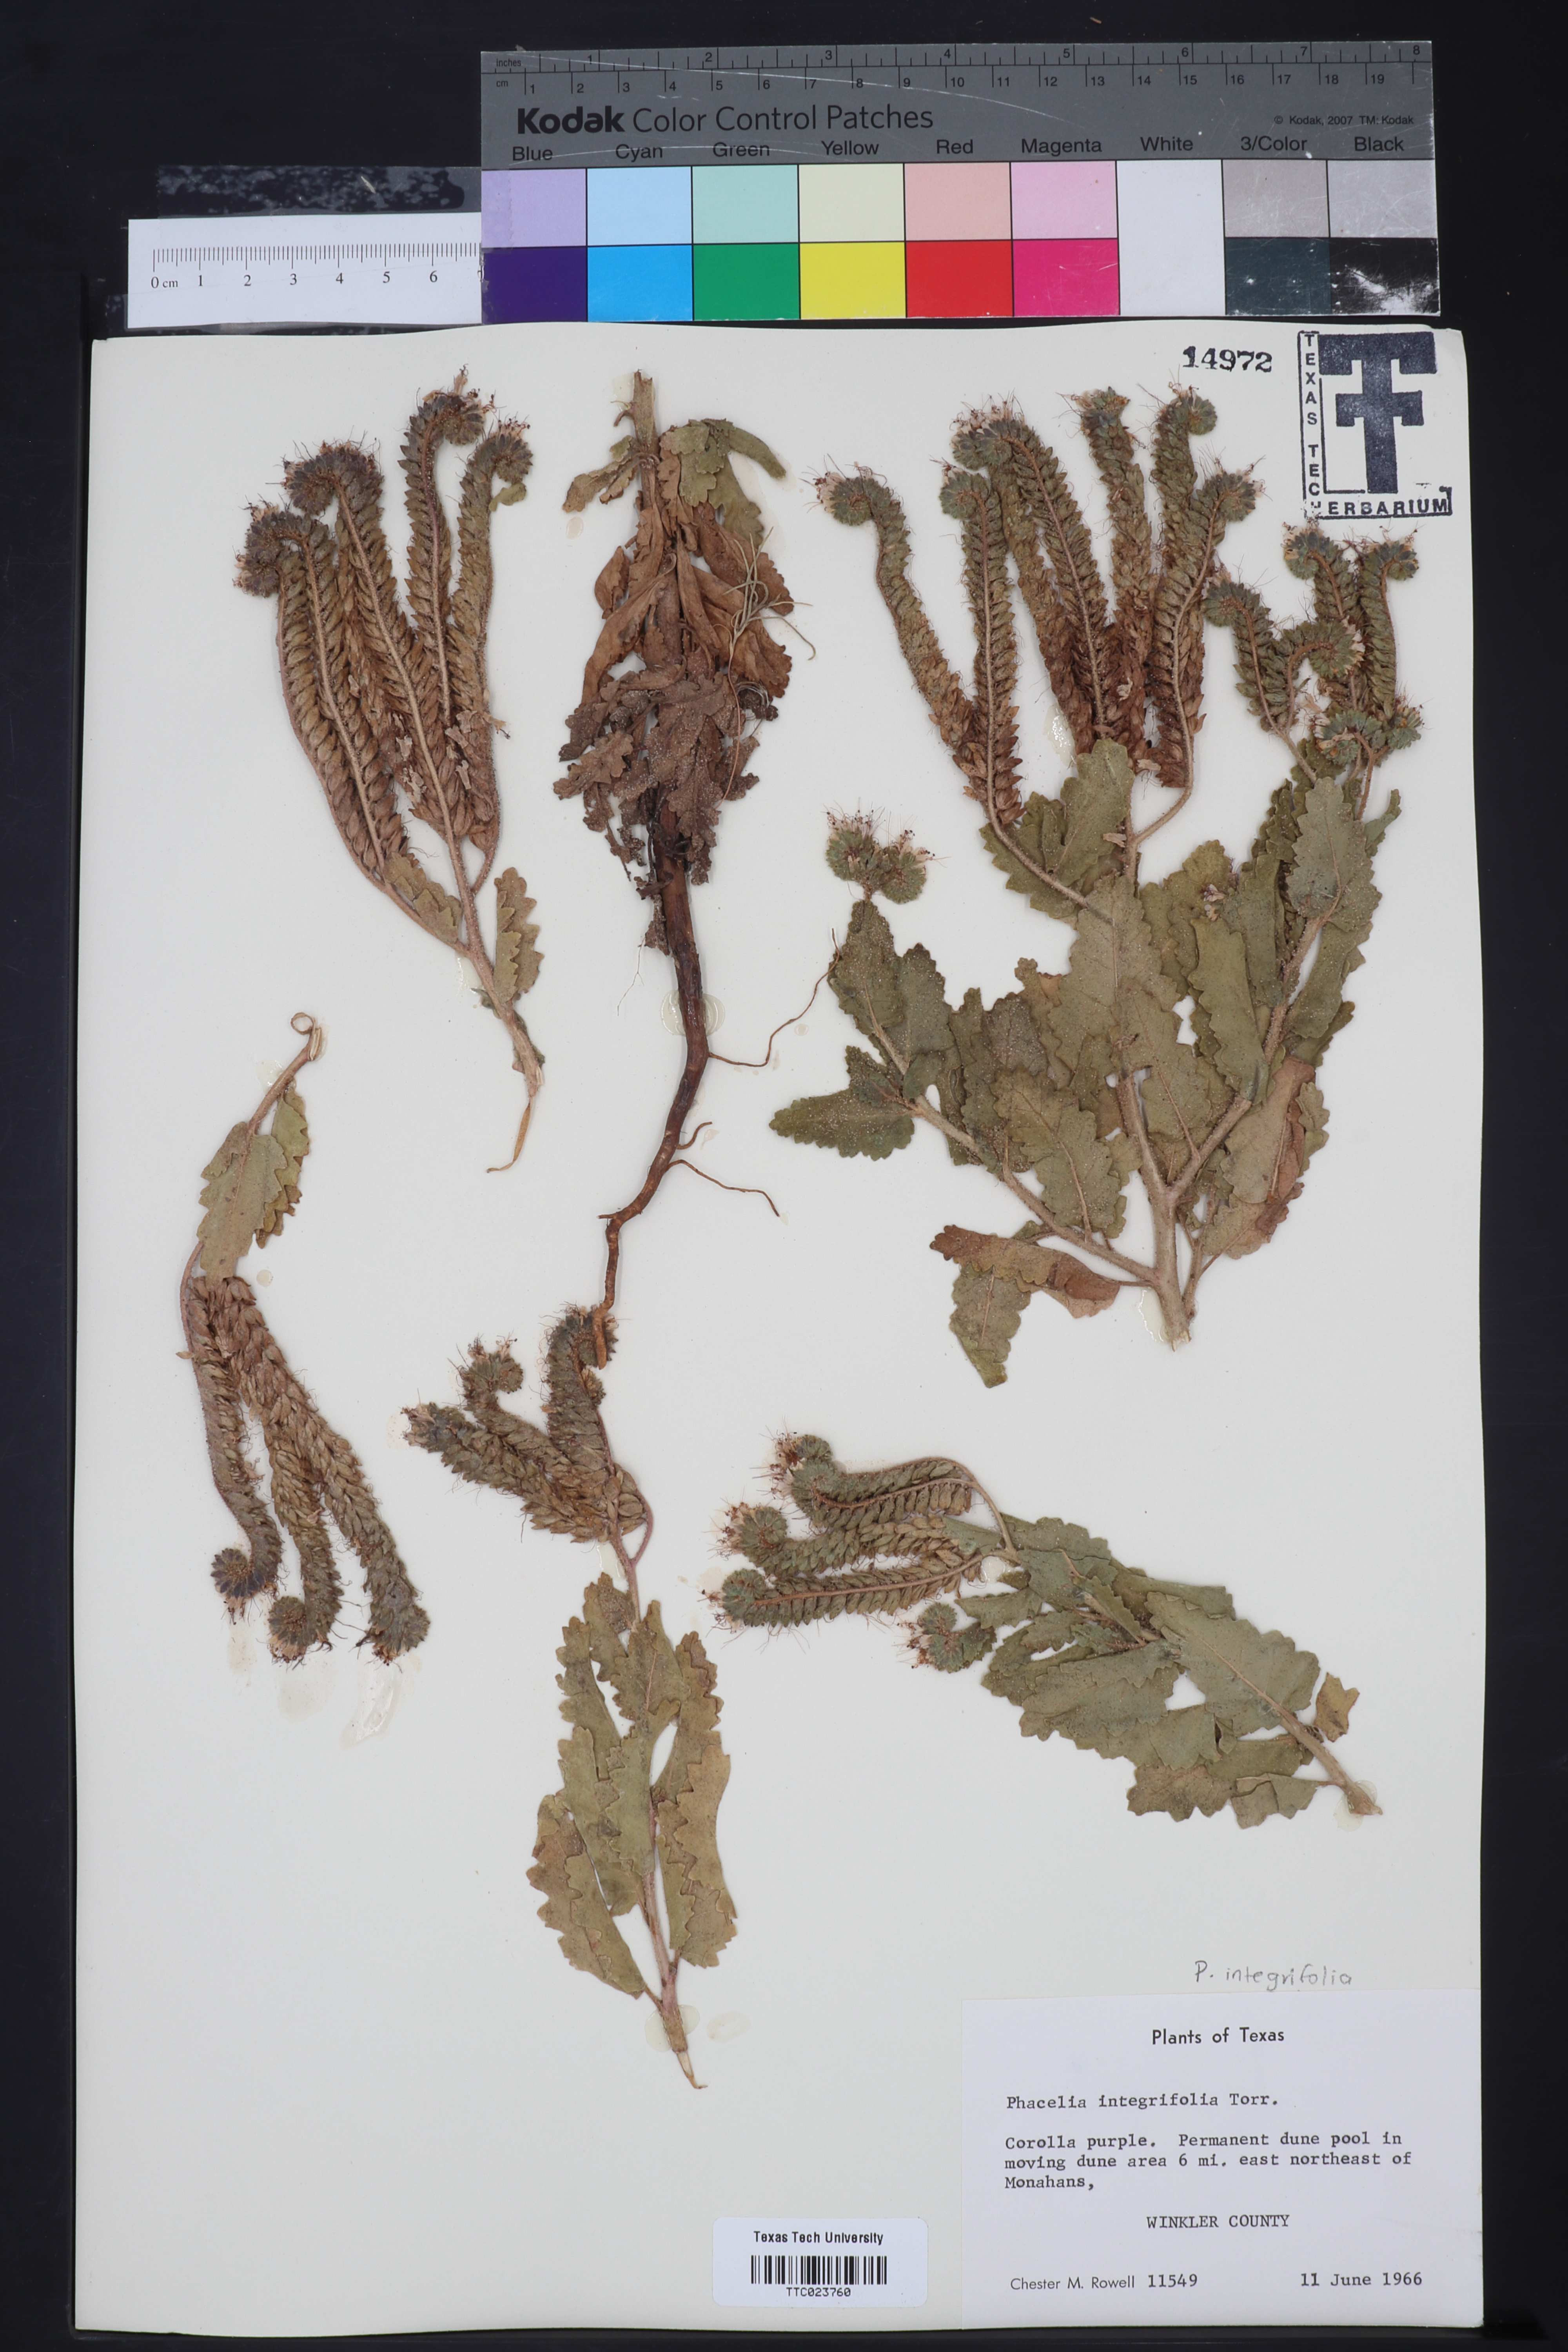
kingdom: Plantae
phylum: Tracheophyta
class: Magnoliopsida
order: Boraginales
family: Hydrophyllaceae
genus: Phacelia
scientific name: Phacelia integrifolia
